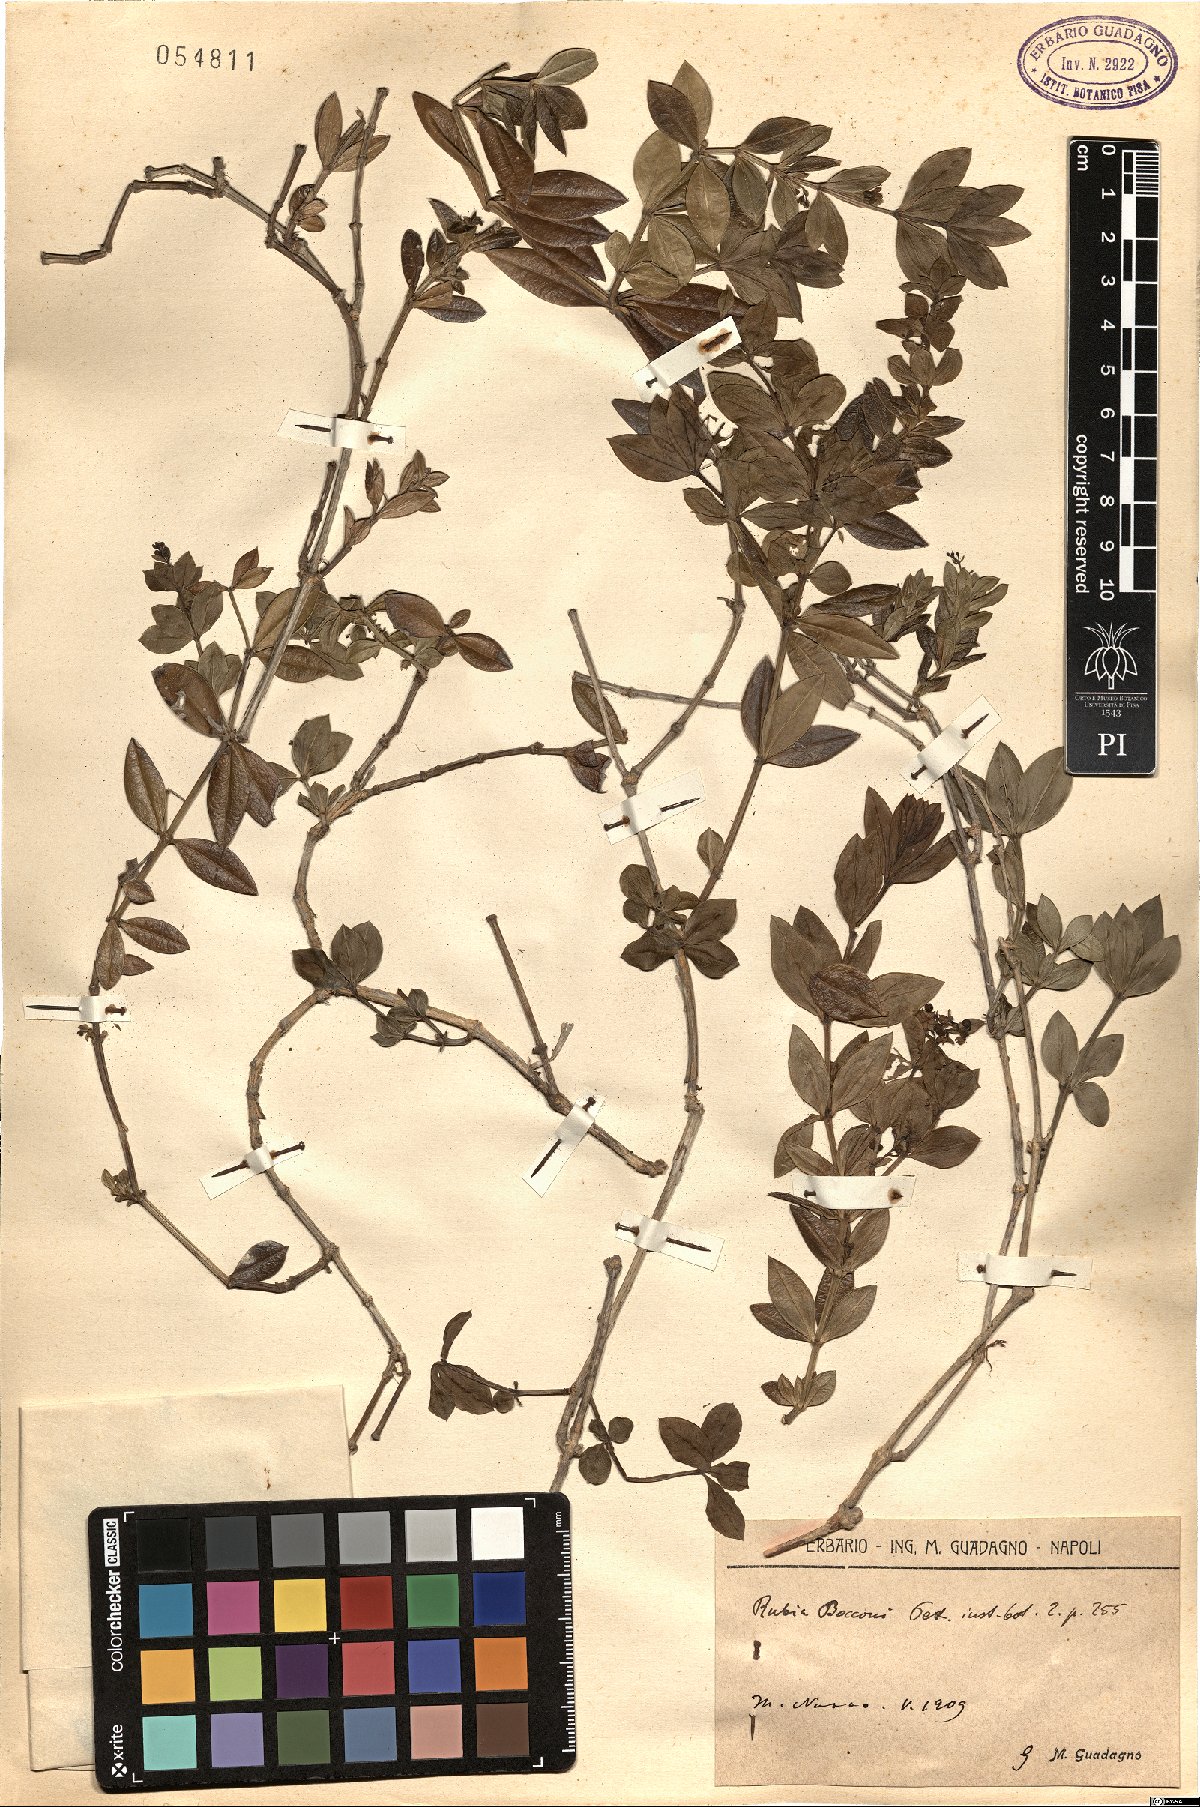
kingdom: Plantae
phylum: Tracheophyta
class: Magnoliopsida
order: Gentianales
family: Rubiaceae
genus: Rubia
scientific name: Rubia peregrina
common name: Wild madder
